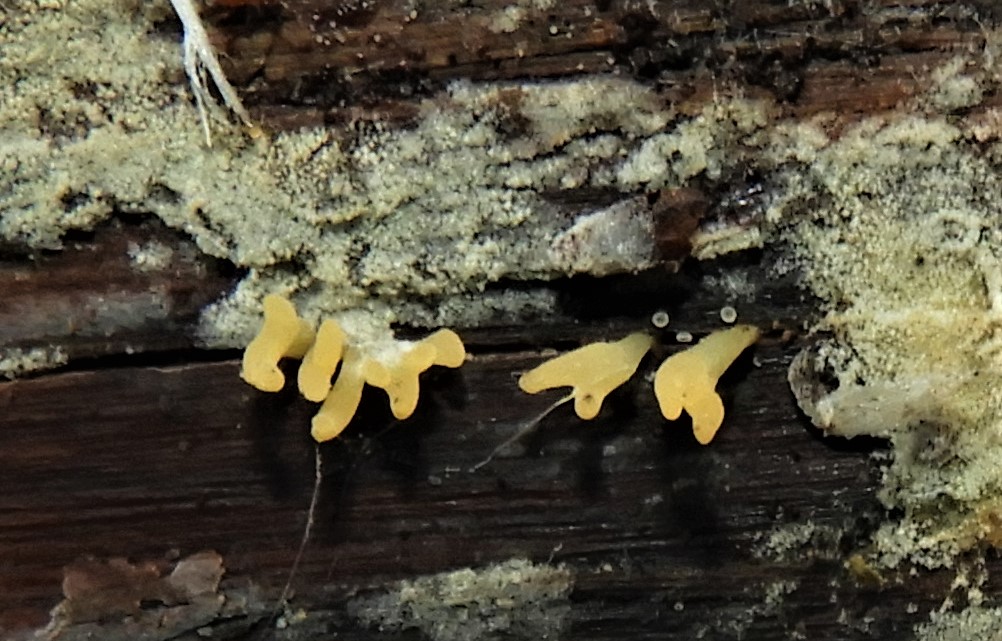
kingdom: Fungi
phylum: Basidiomycota
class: Dacrymycetes
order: Dacrymycetales
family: Dacrymycetaceae
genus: Calocera
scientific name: Calocera cornea
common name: liden guldgaffel
